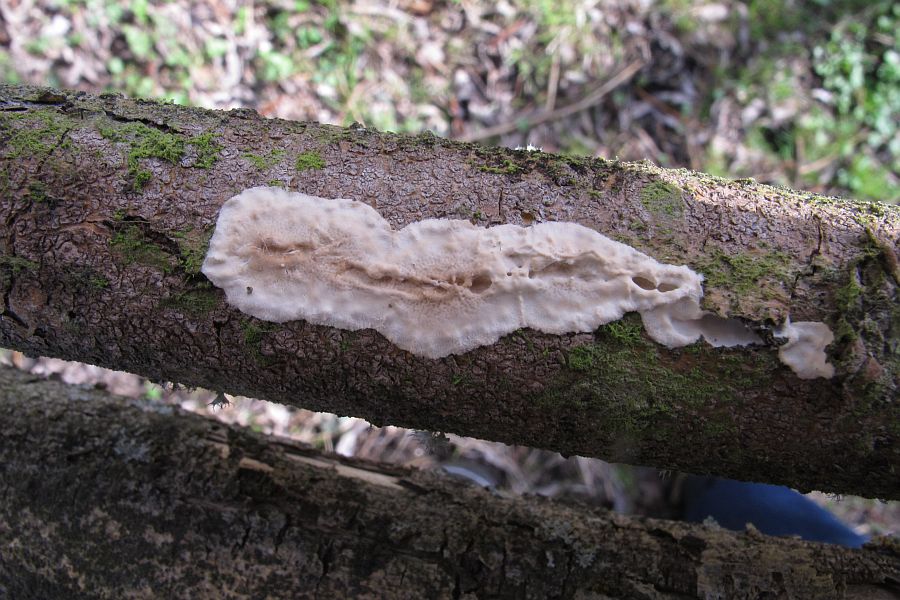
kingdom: Fungi
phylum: Basidiomycota
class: Agaricomycetes
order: Polyporales
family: Irpicaceae
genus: Byssomerulius
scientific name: Byssomerulius corium
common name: læder-åresvamp
